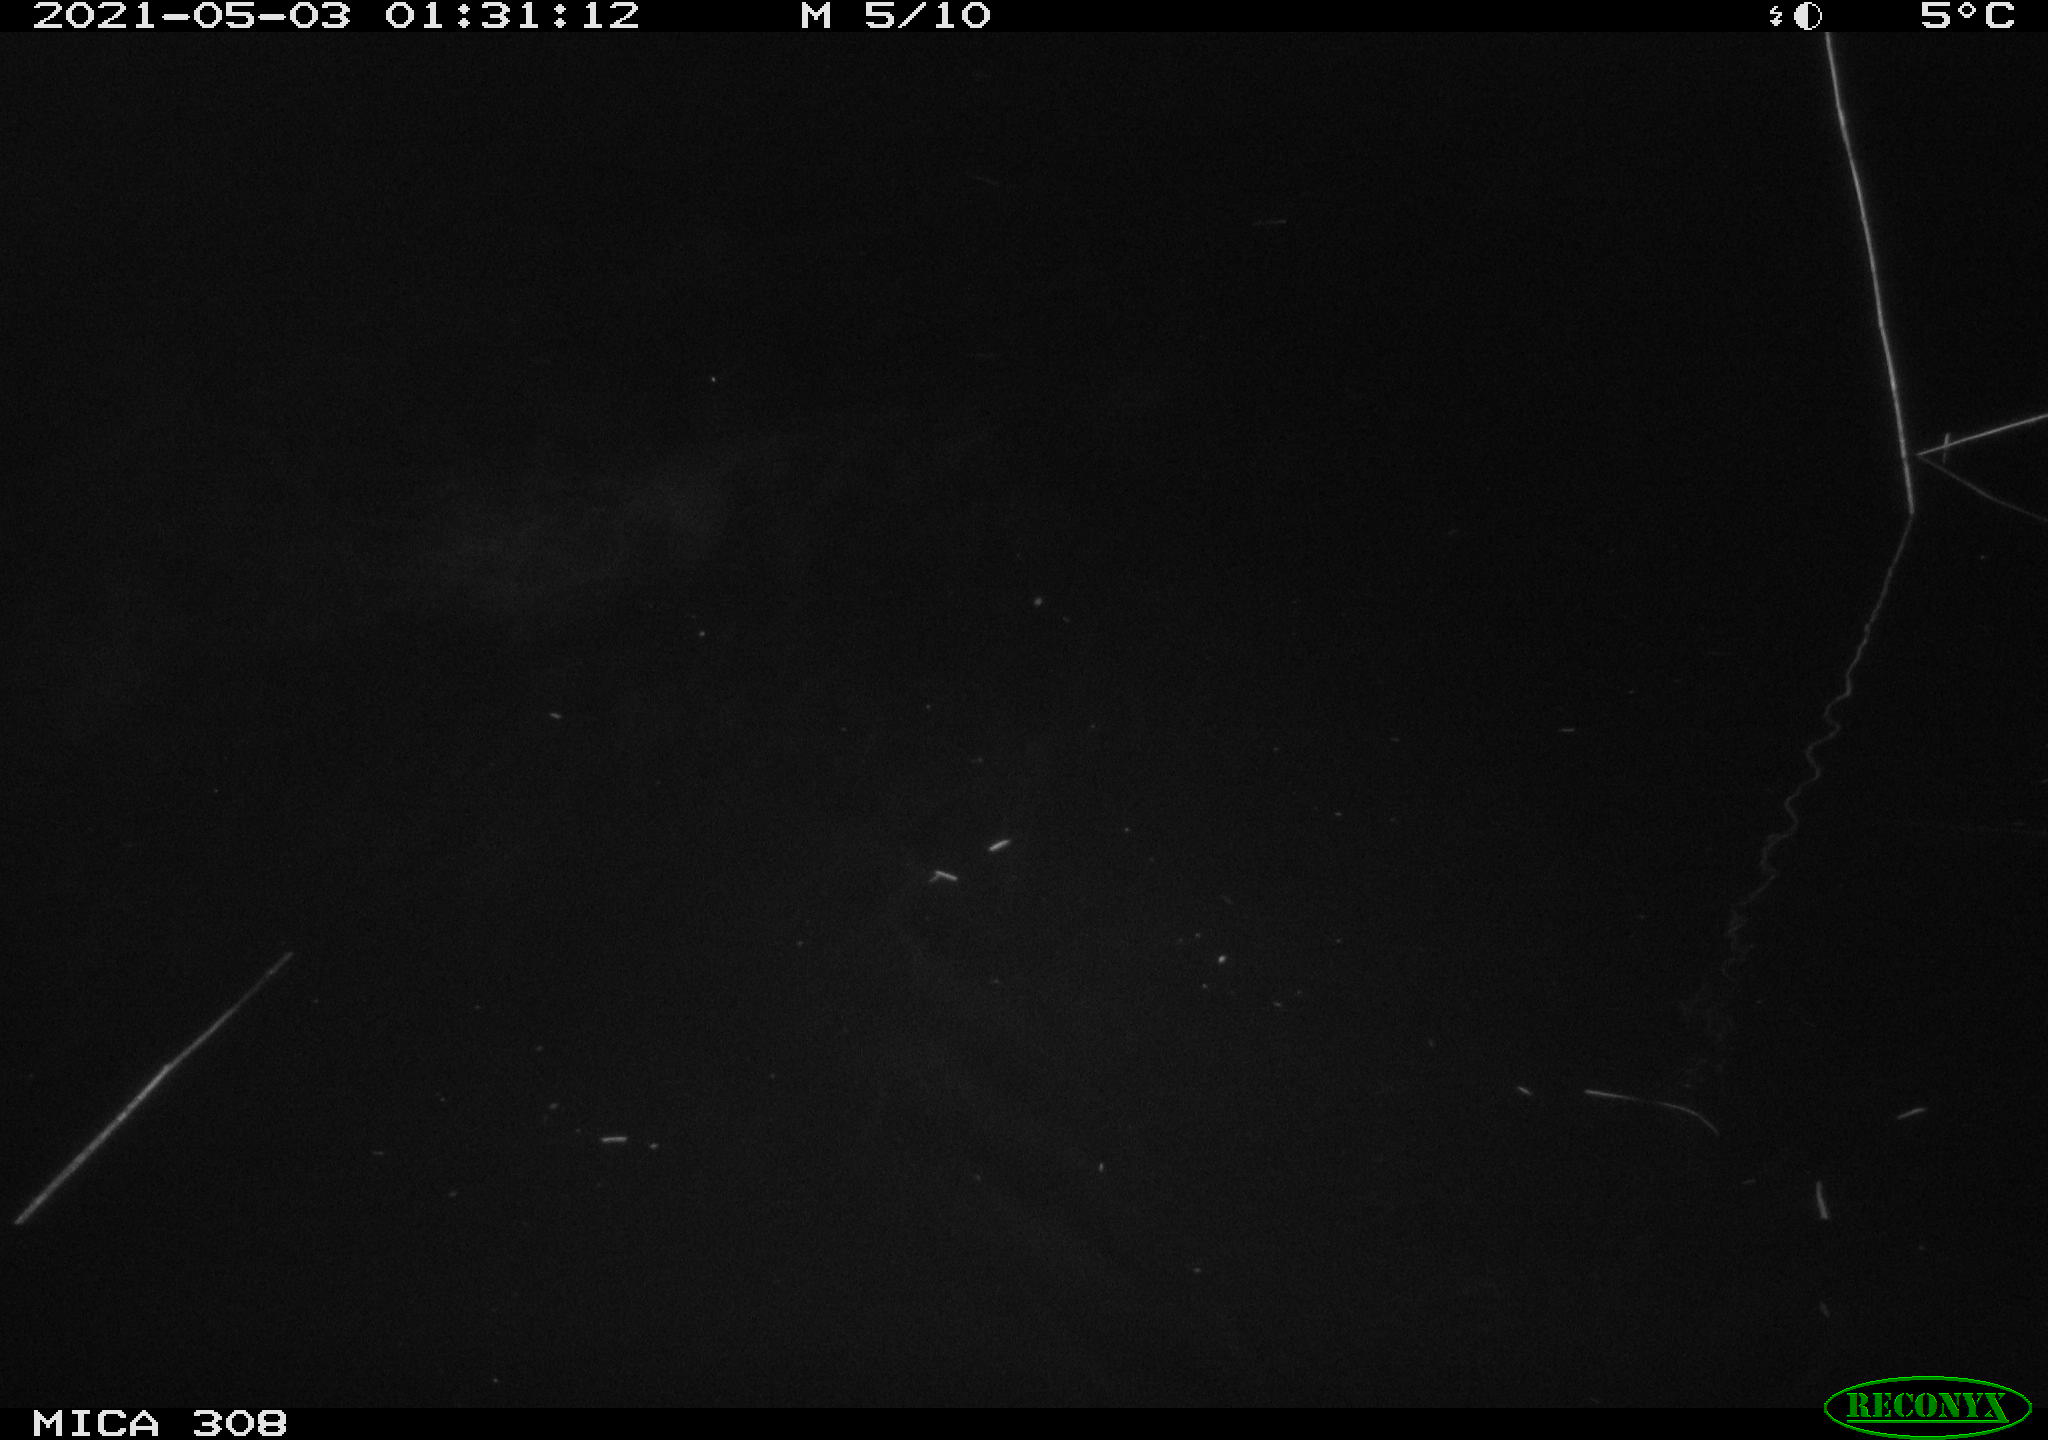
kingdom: Animalia
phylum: Chordata
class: Aves
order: Anseriformes
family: Anatidae
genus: Anas
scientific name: Anas platyrhynchos
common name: Mallard
